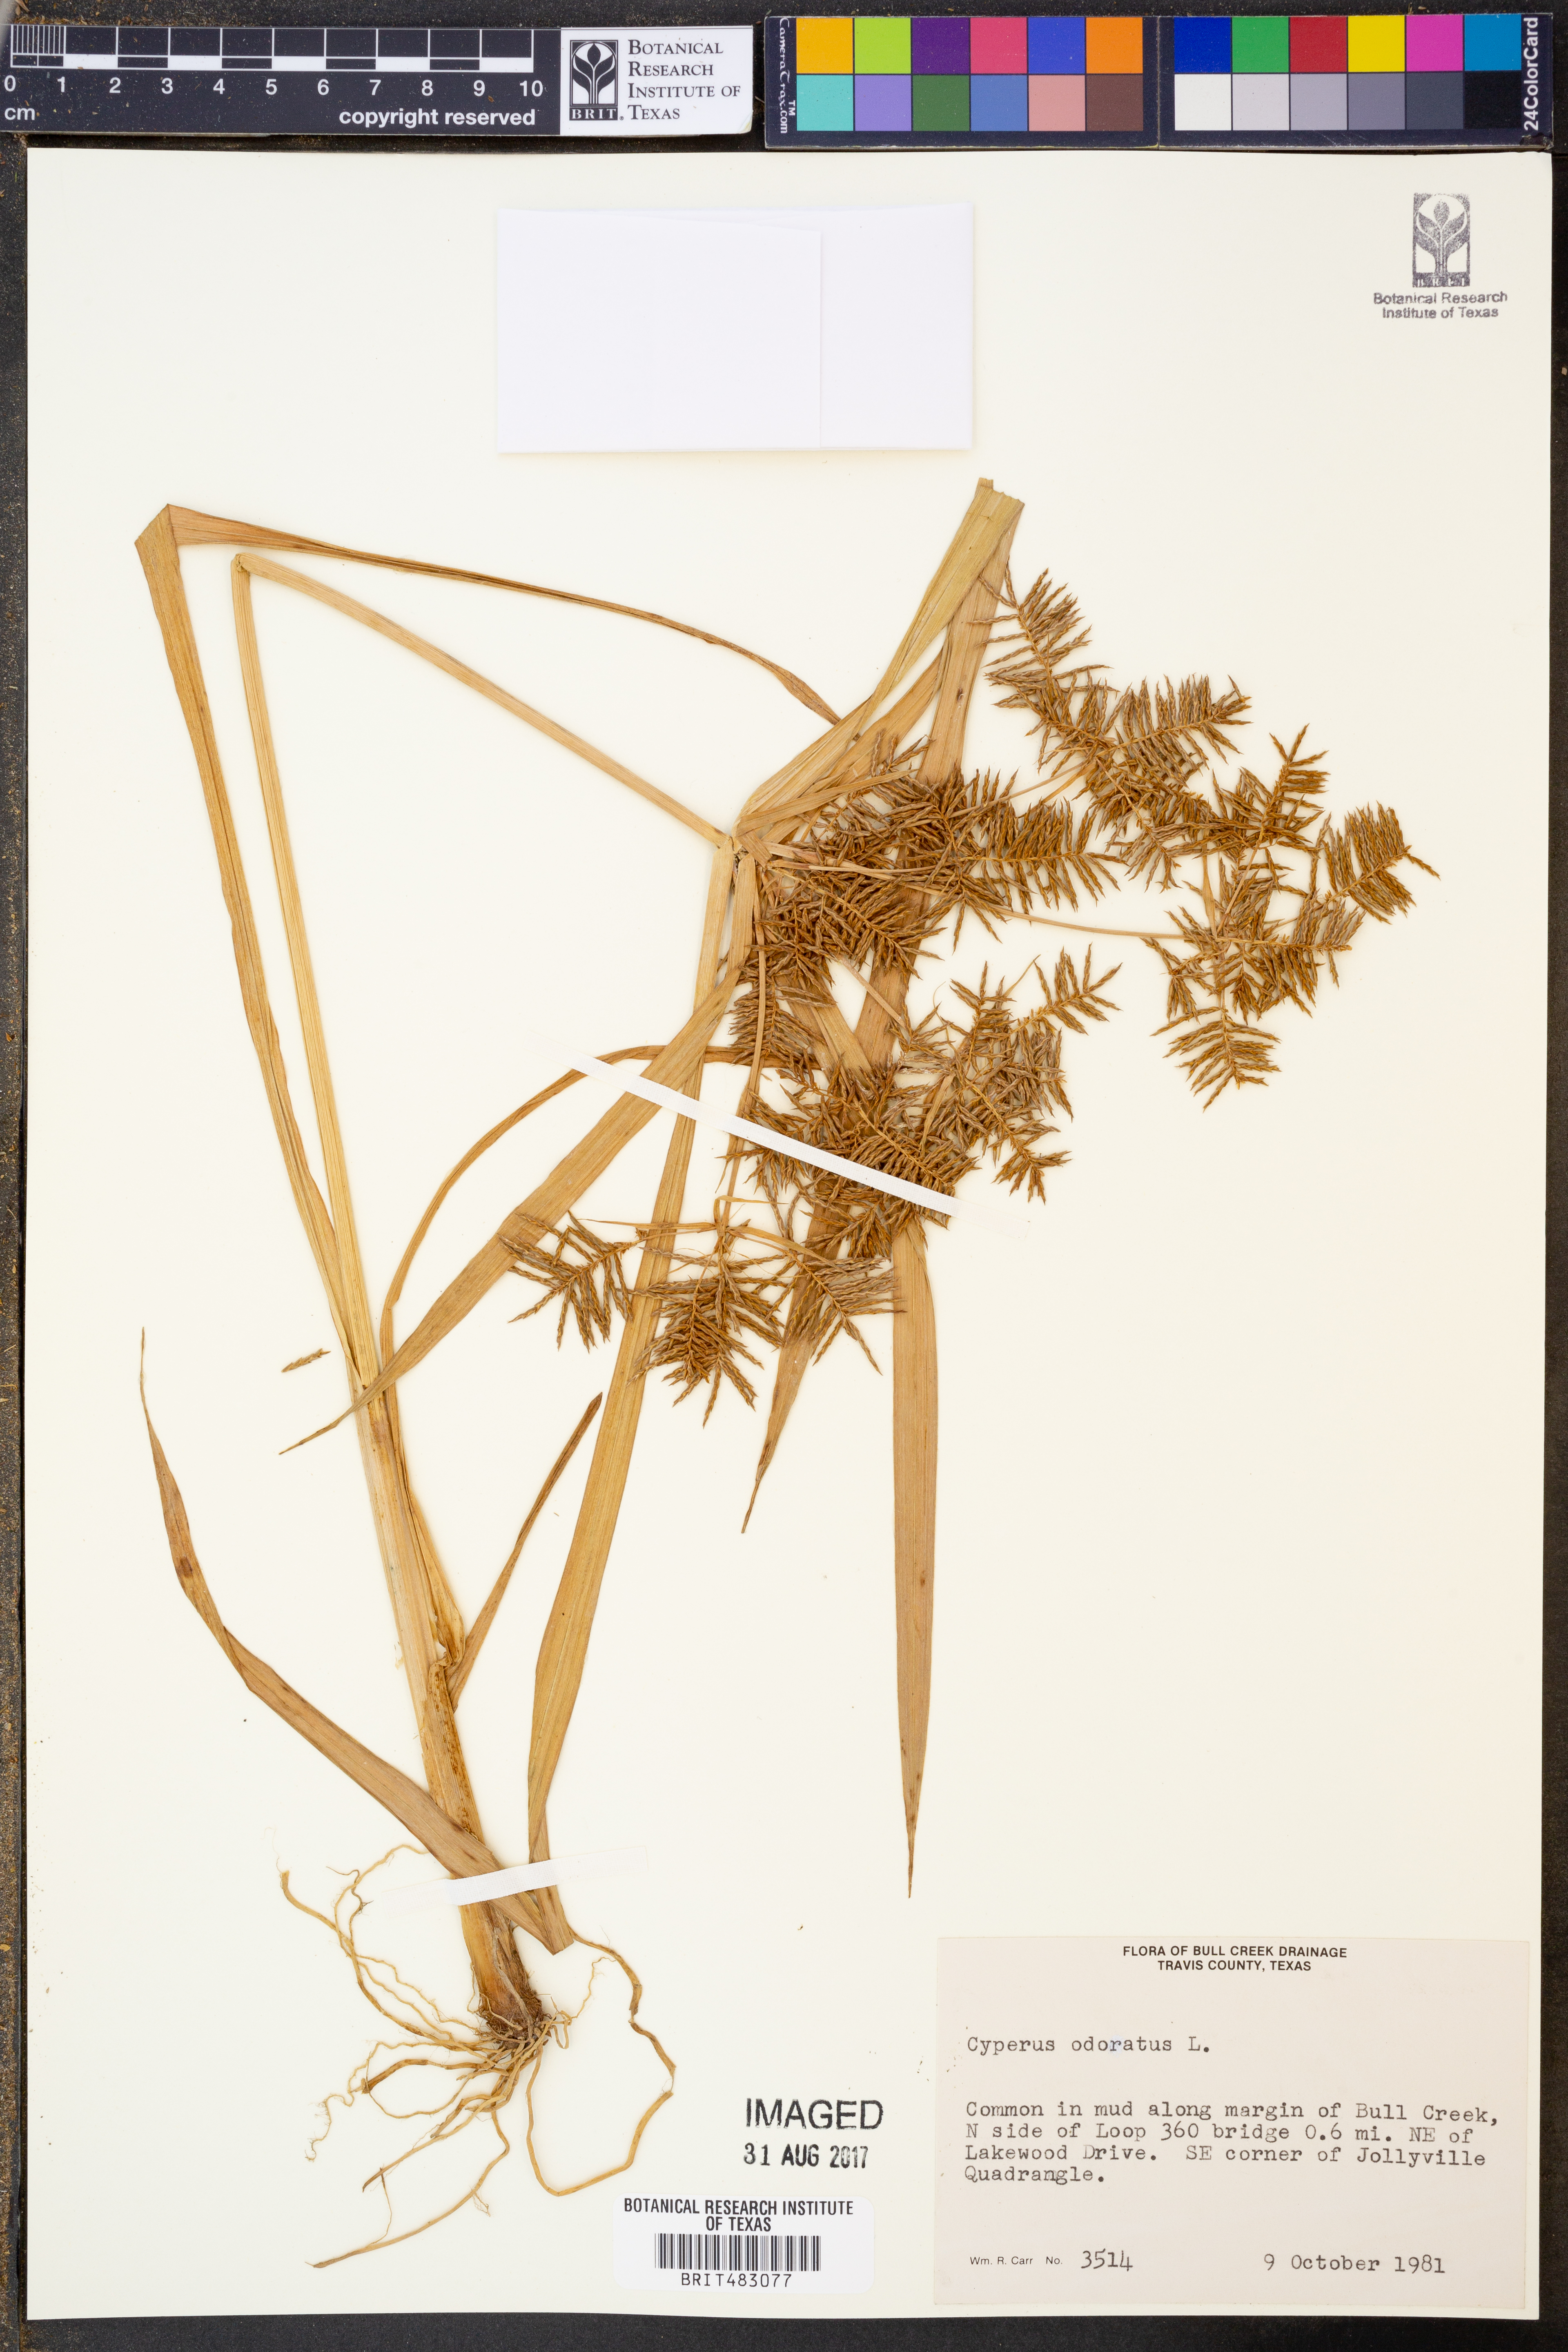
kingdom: Plantae
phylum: Tracheophyta
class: Liliopsida
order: Poales
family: Cyperaceae
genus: Cyperus
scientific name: Cyperus odoratus
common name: Fragrant flatsedge
